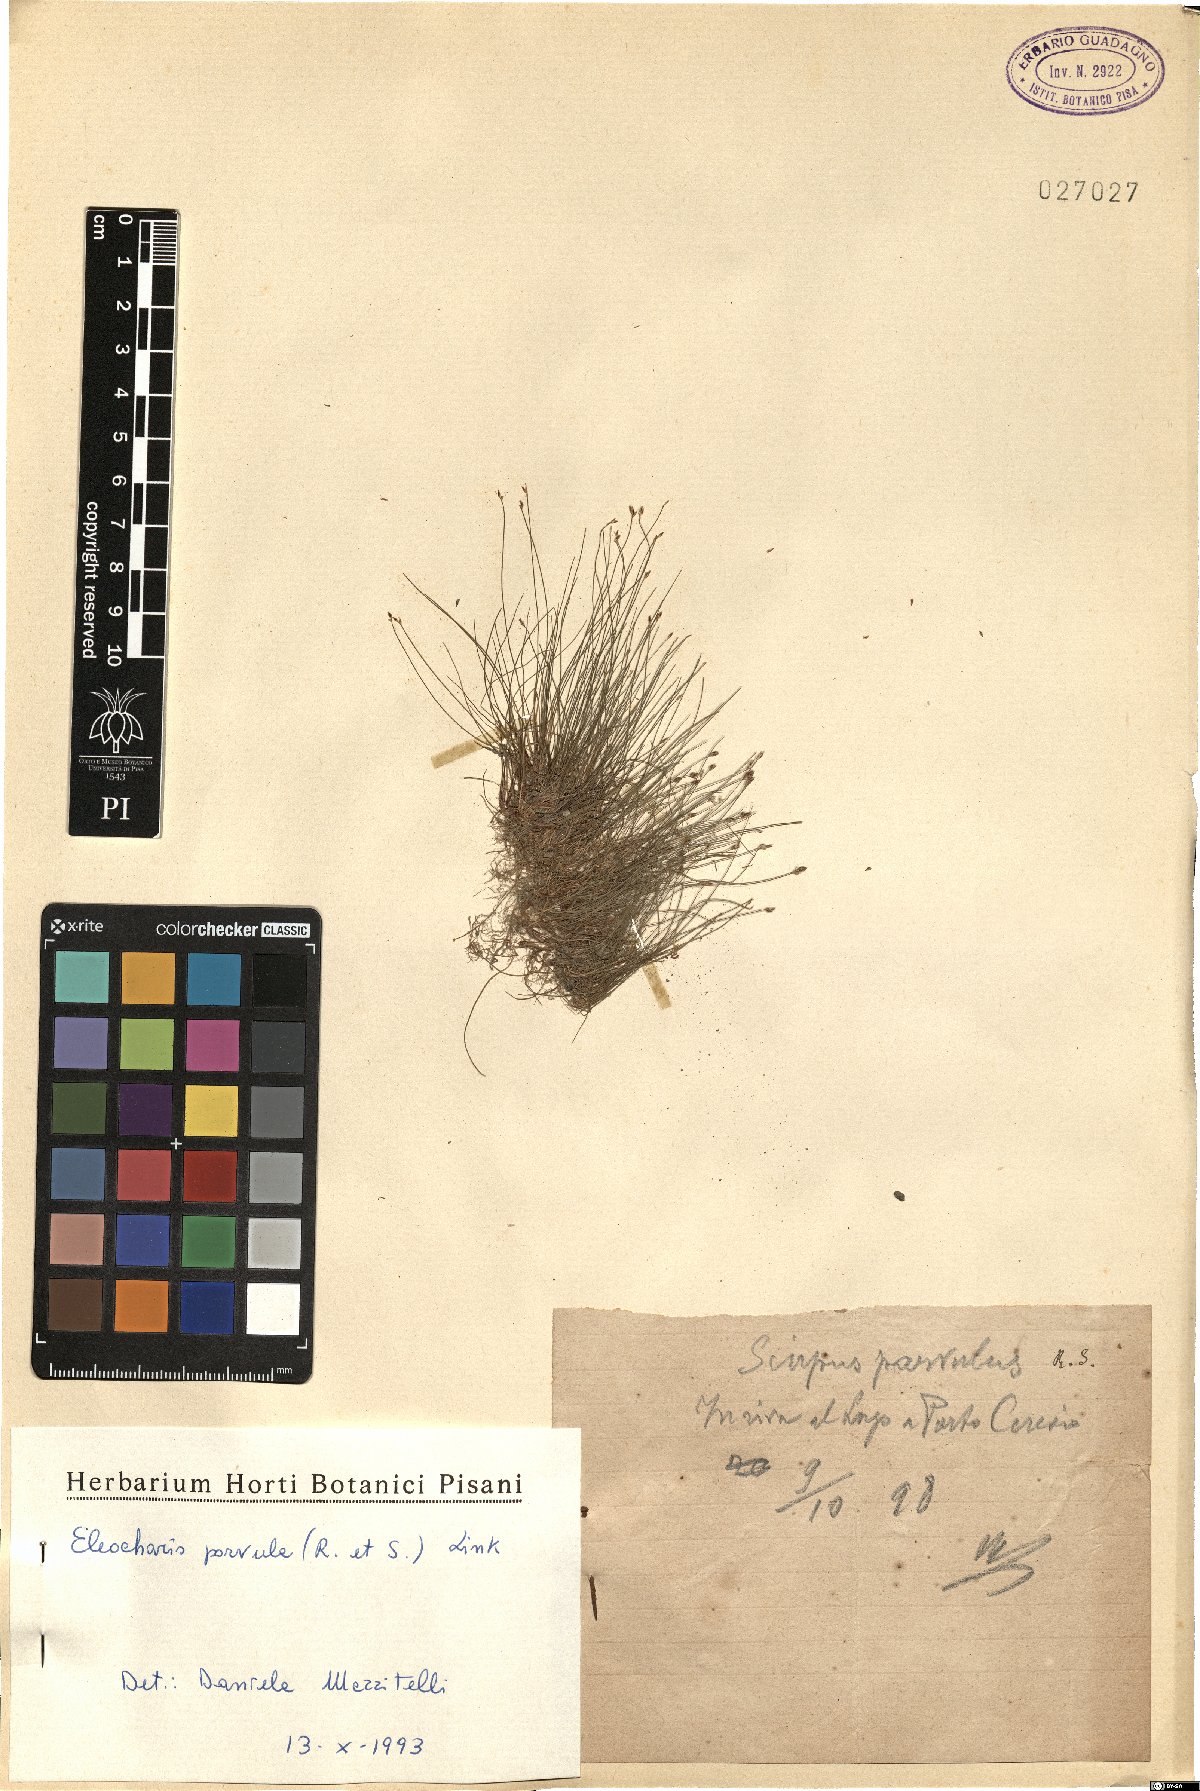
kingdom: Plantae
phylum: Tracheophyta
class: Liliopsida
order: Poales
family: Cyperaceae
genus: Eleocharis
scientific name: Eleocharis parvula
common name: Dwarf spike-rush
